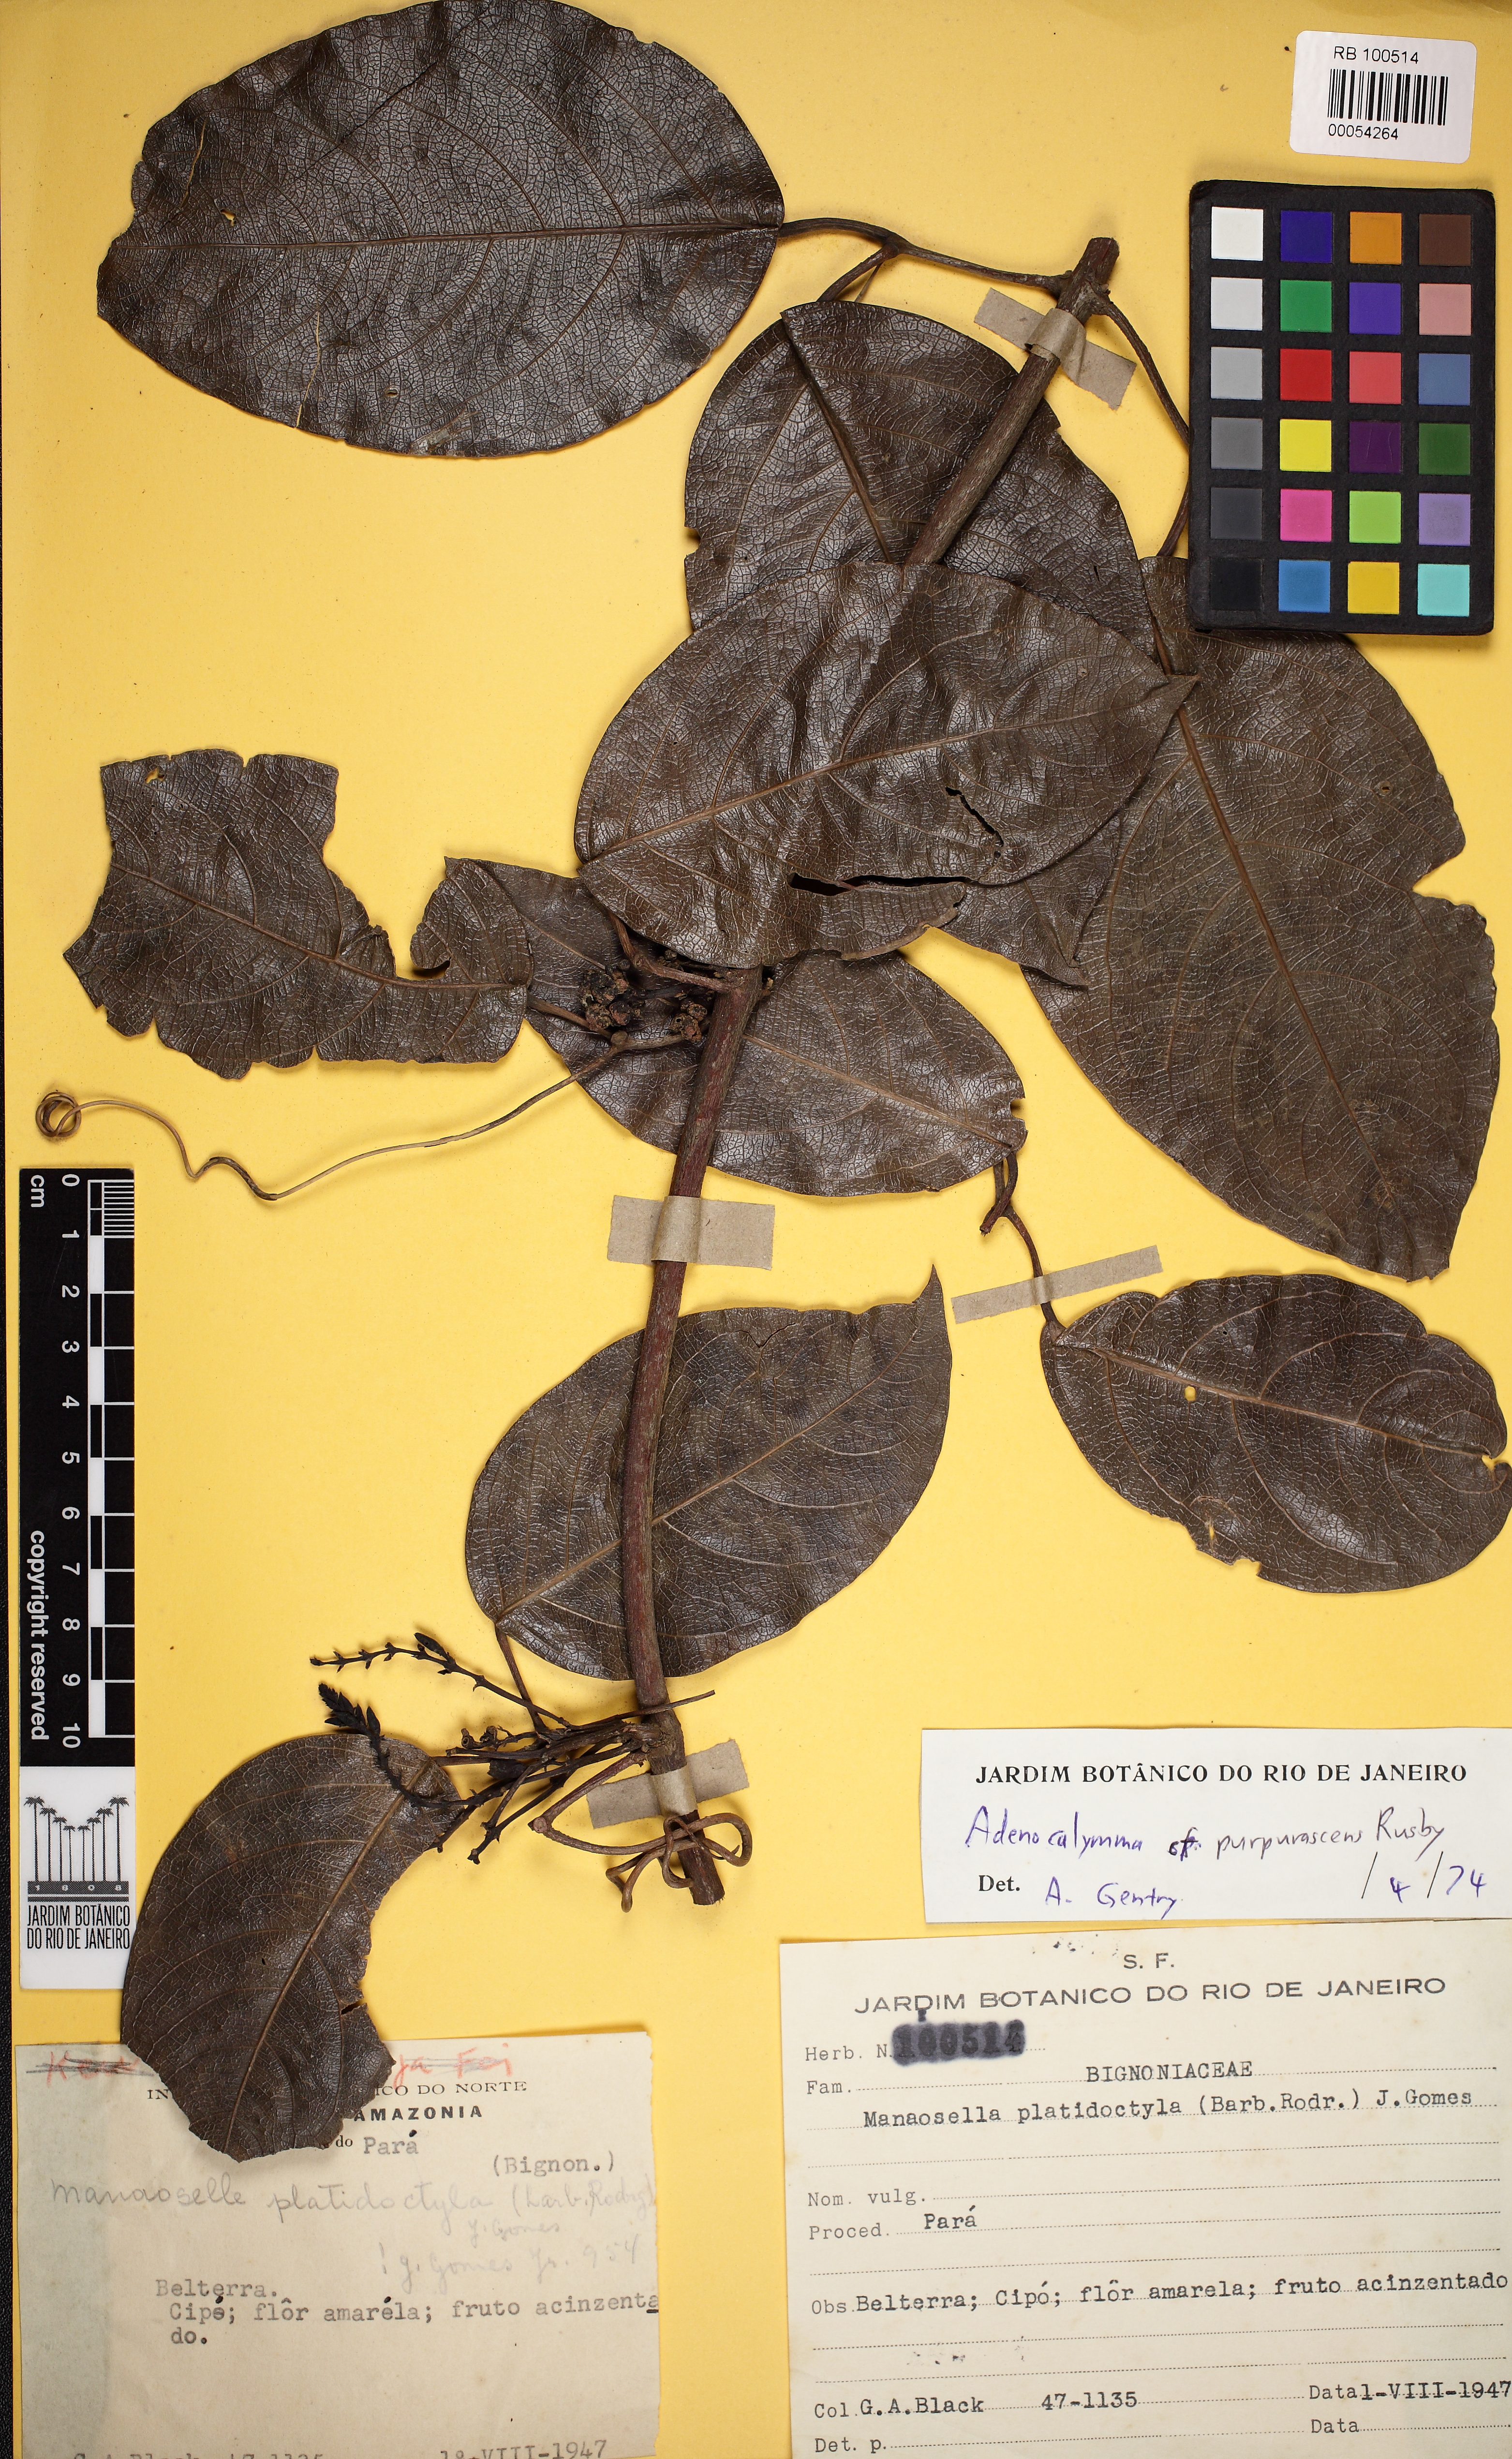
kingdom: Plantae
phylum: Tracheophyta
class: Magnoliopsida
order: Lamiales
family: Bignoniaceae
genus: Adenocalymma
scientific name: Adenocalymma bracteolatum
